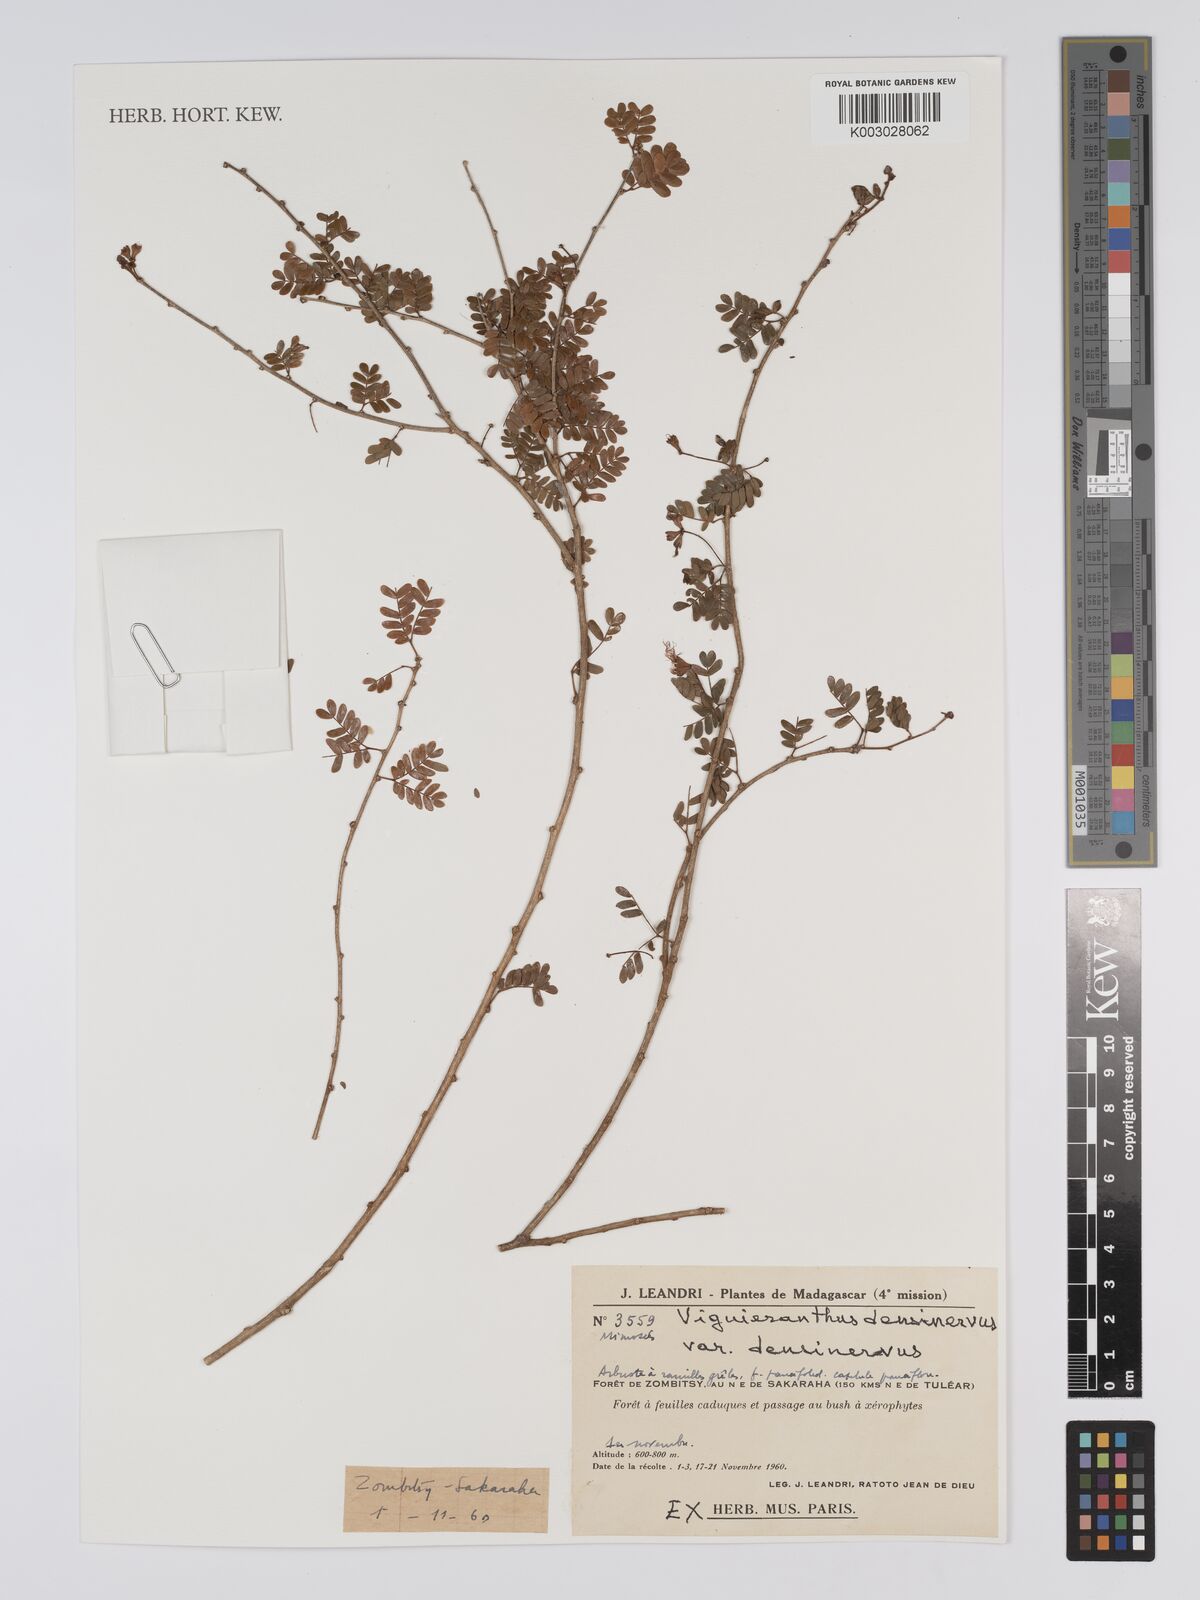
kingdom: Plantae
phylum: Tracheophyta
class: Magnoliopsida
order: Fabales
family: Fabaceae
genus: Viguieranthus
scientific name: Viguieranthus densinervus
